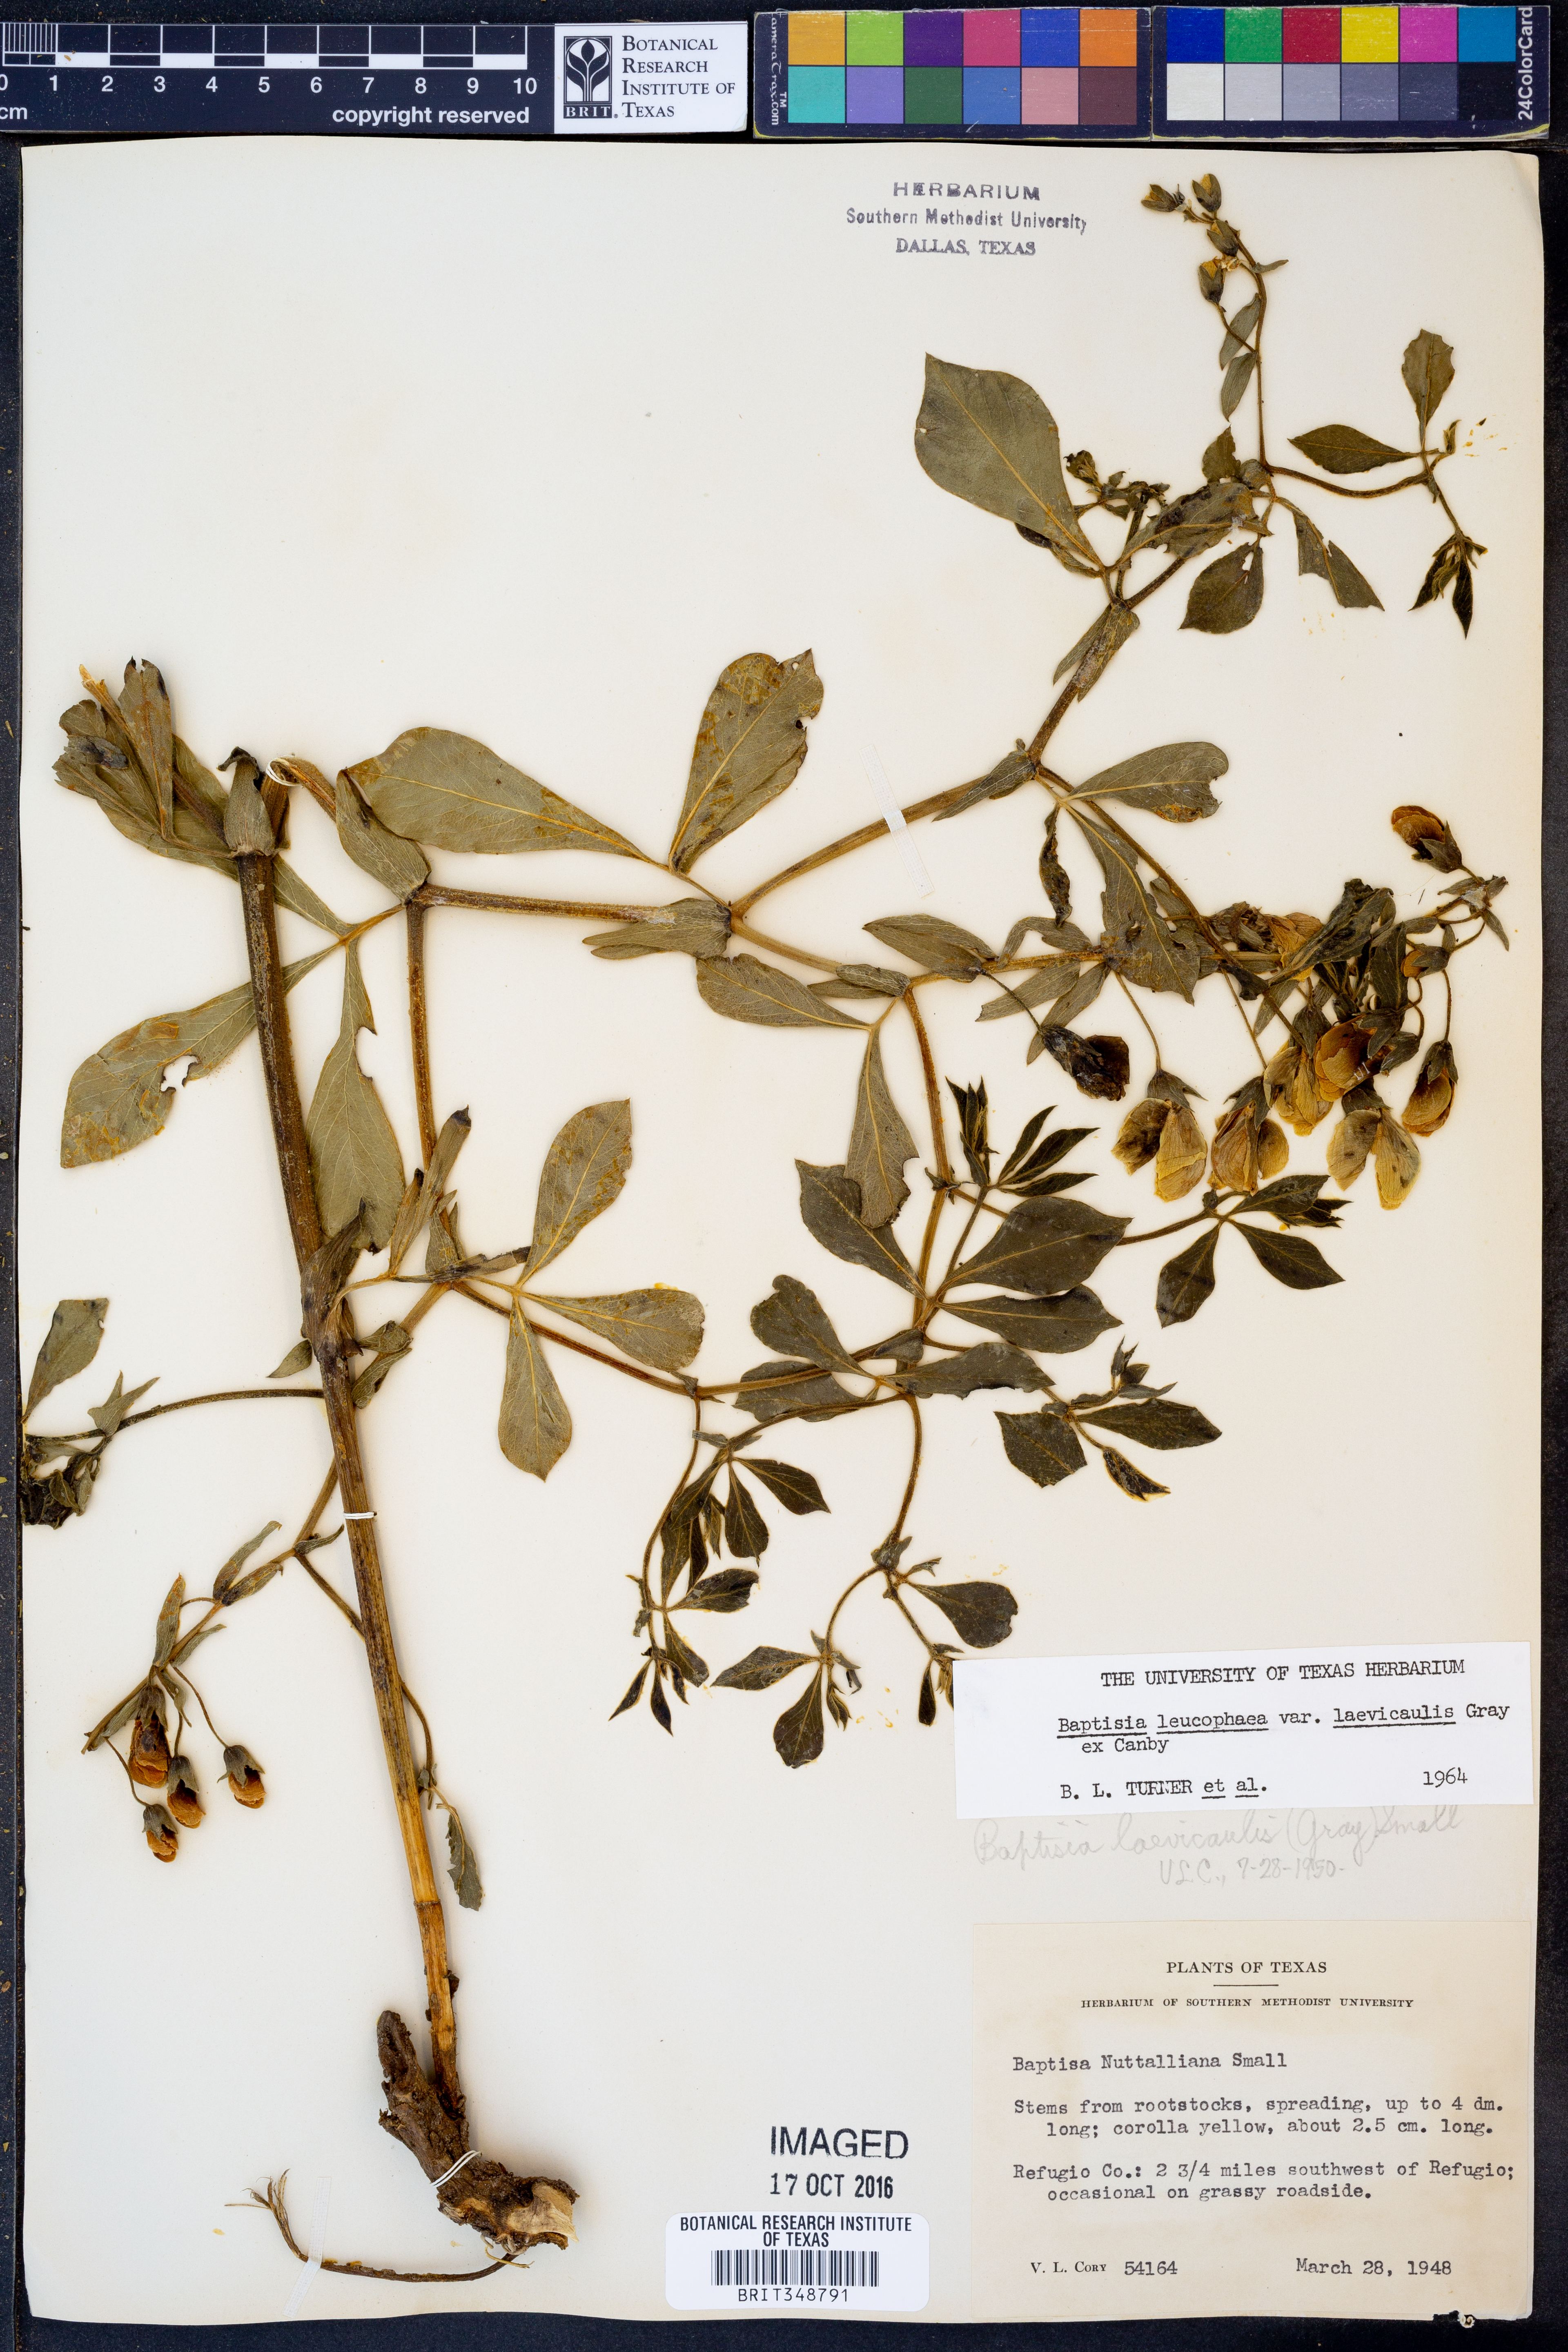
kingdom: Plantae
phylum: Tracheophyta
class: Magnoliopsida
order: Fabales
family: Fabaceae
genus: Baptisia
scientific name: Baptisia bracteata
